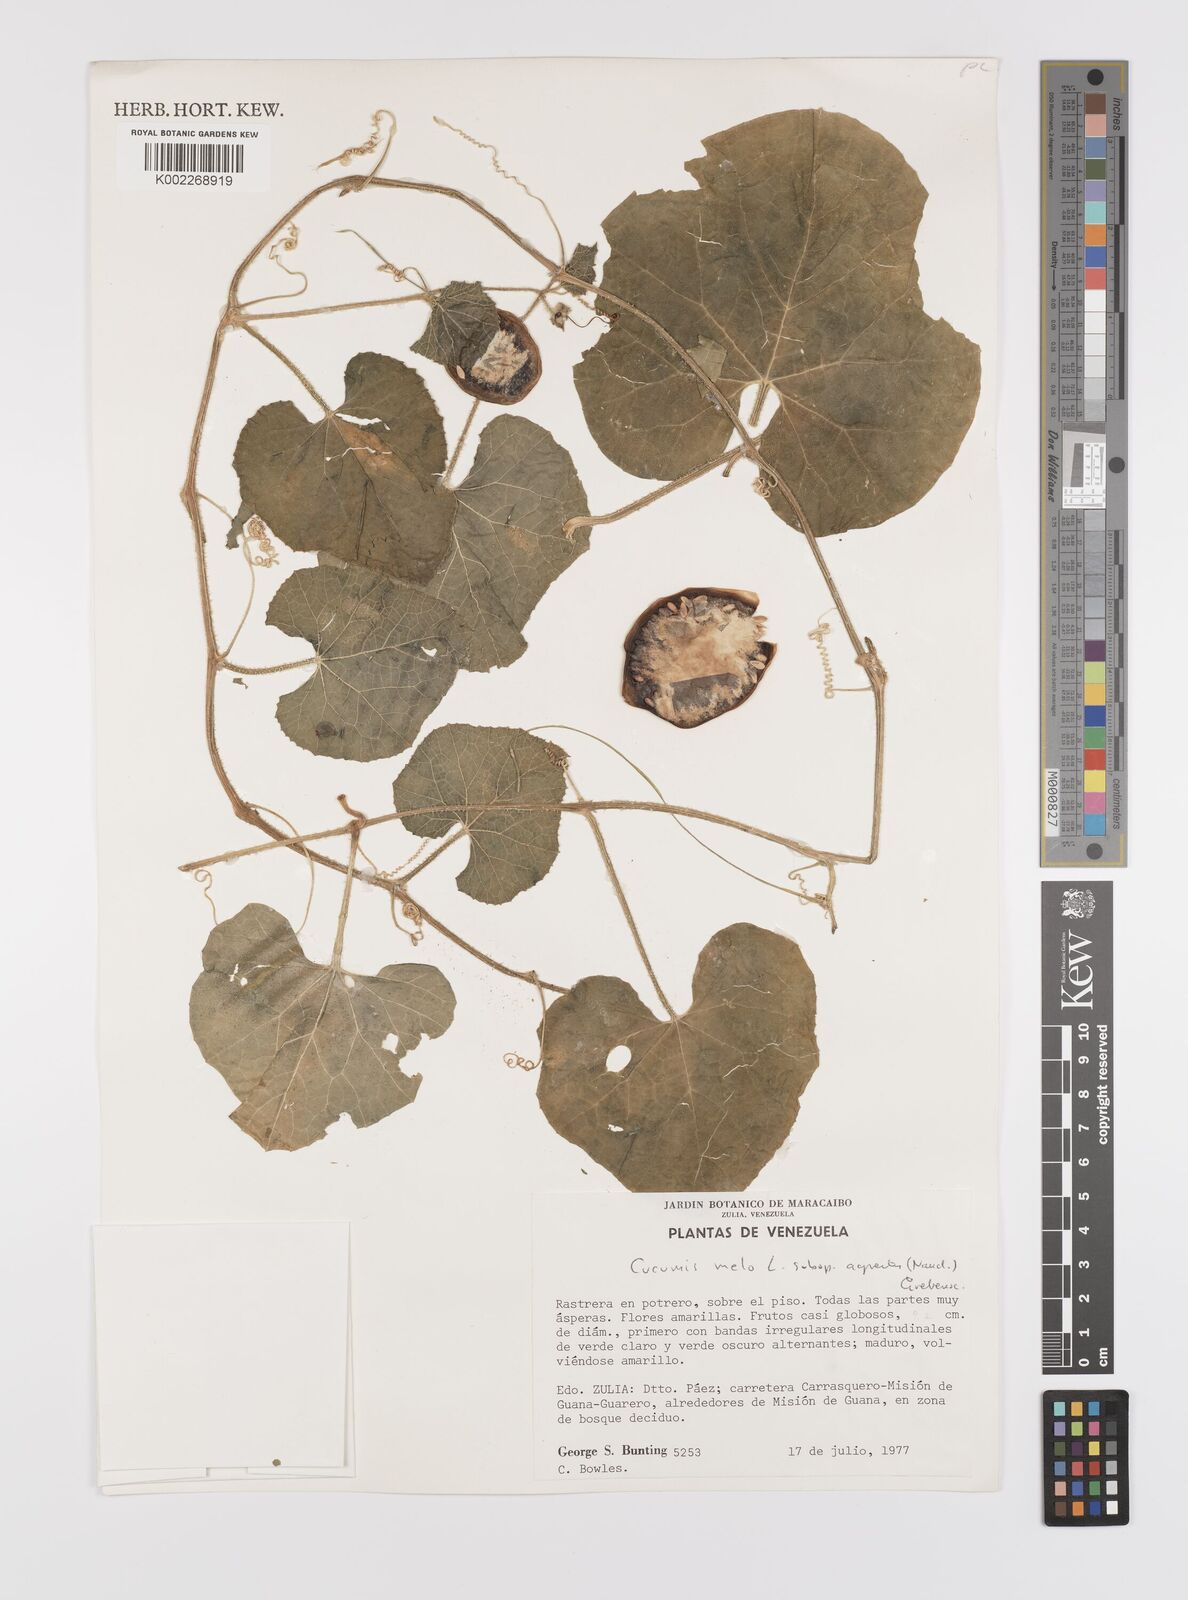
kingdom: Plantae
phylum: Tracheophyta
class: Magnoliopsida
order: Cucurbitales
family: Cucurbitaceae
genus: Cucumis
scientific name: Cucumis melo
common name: Melon
